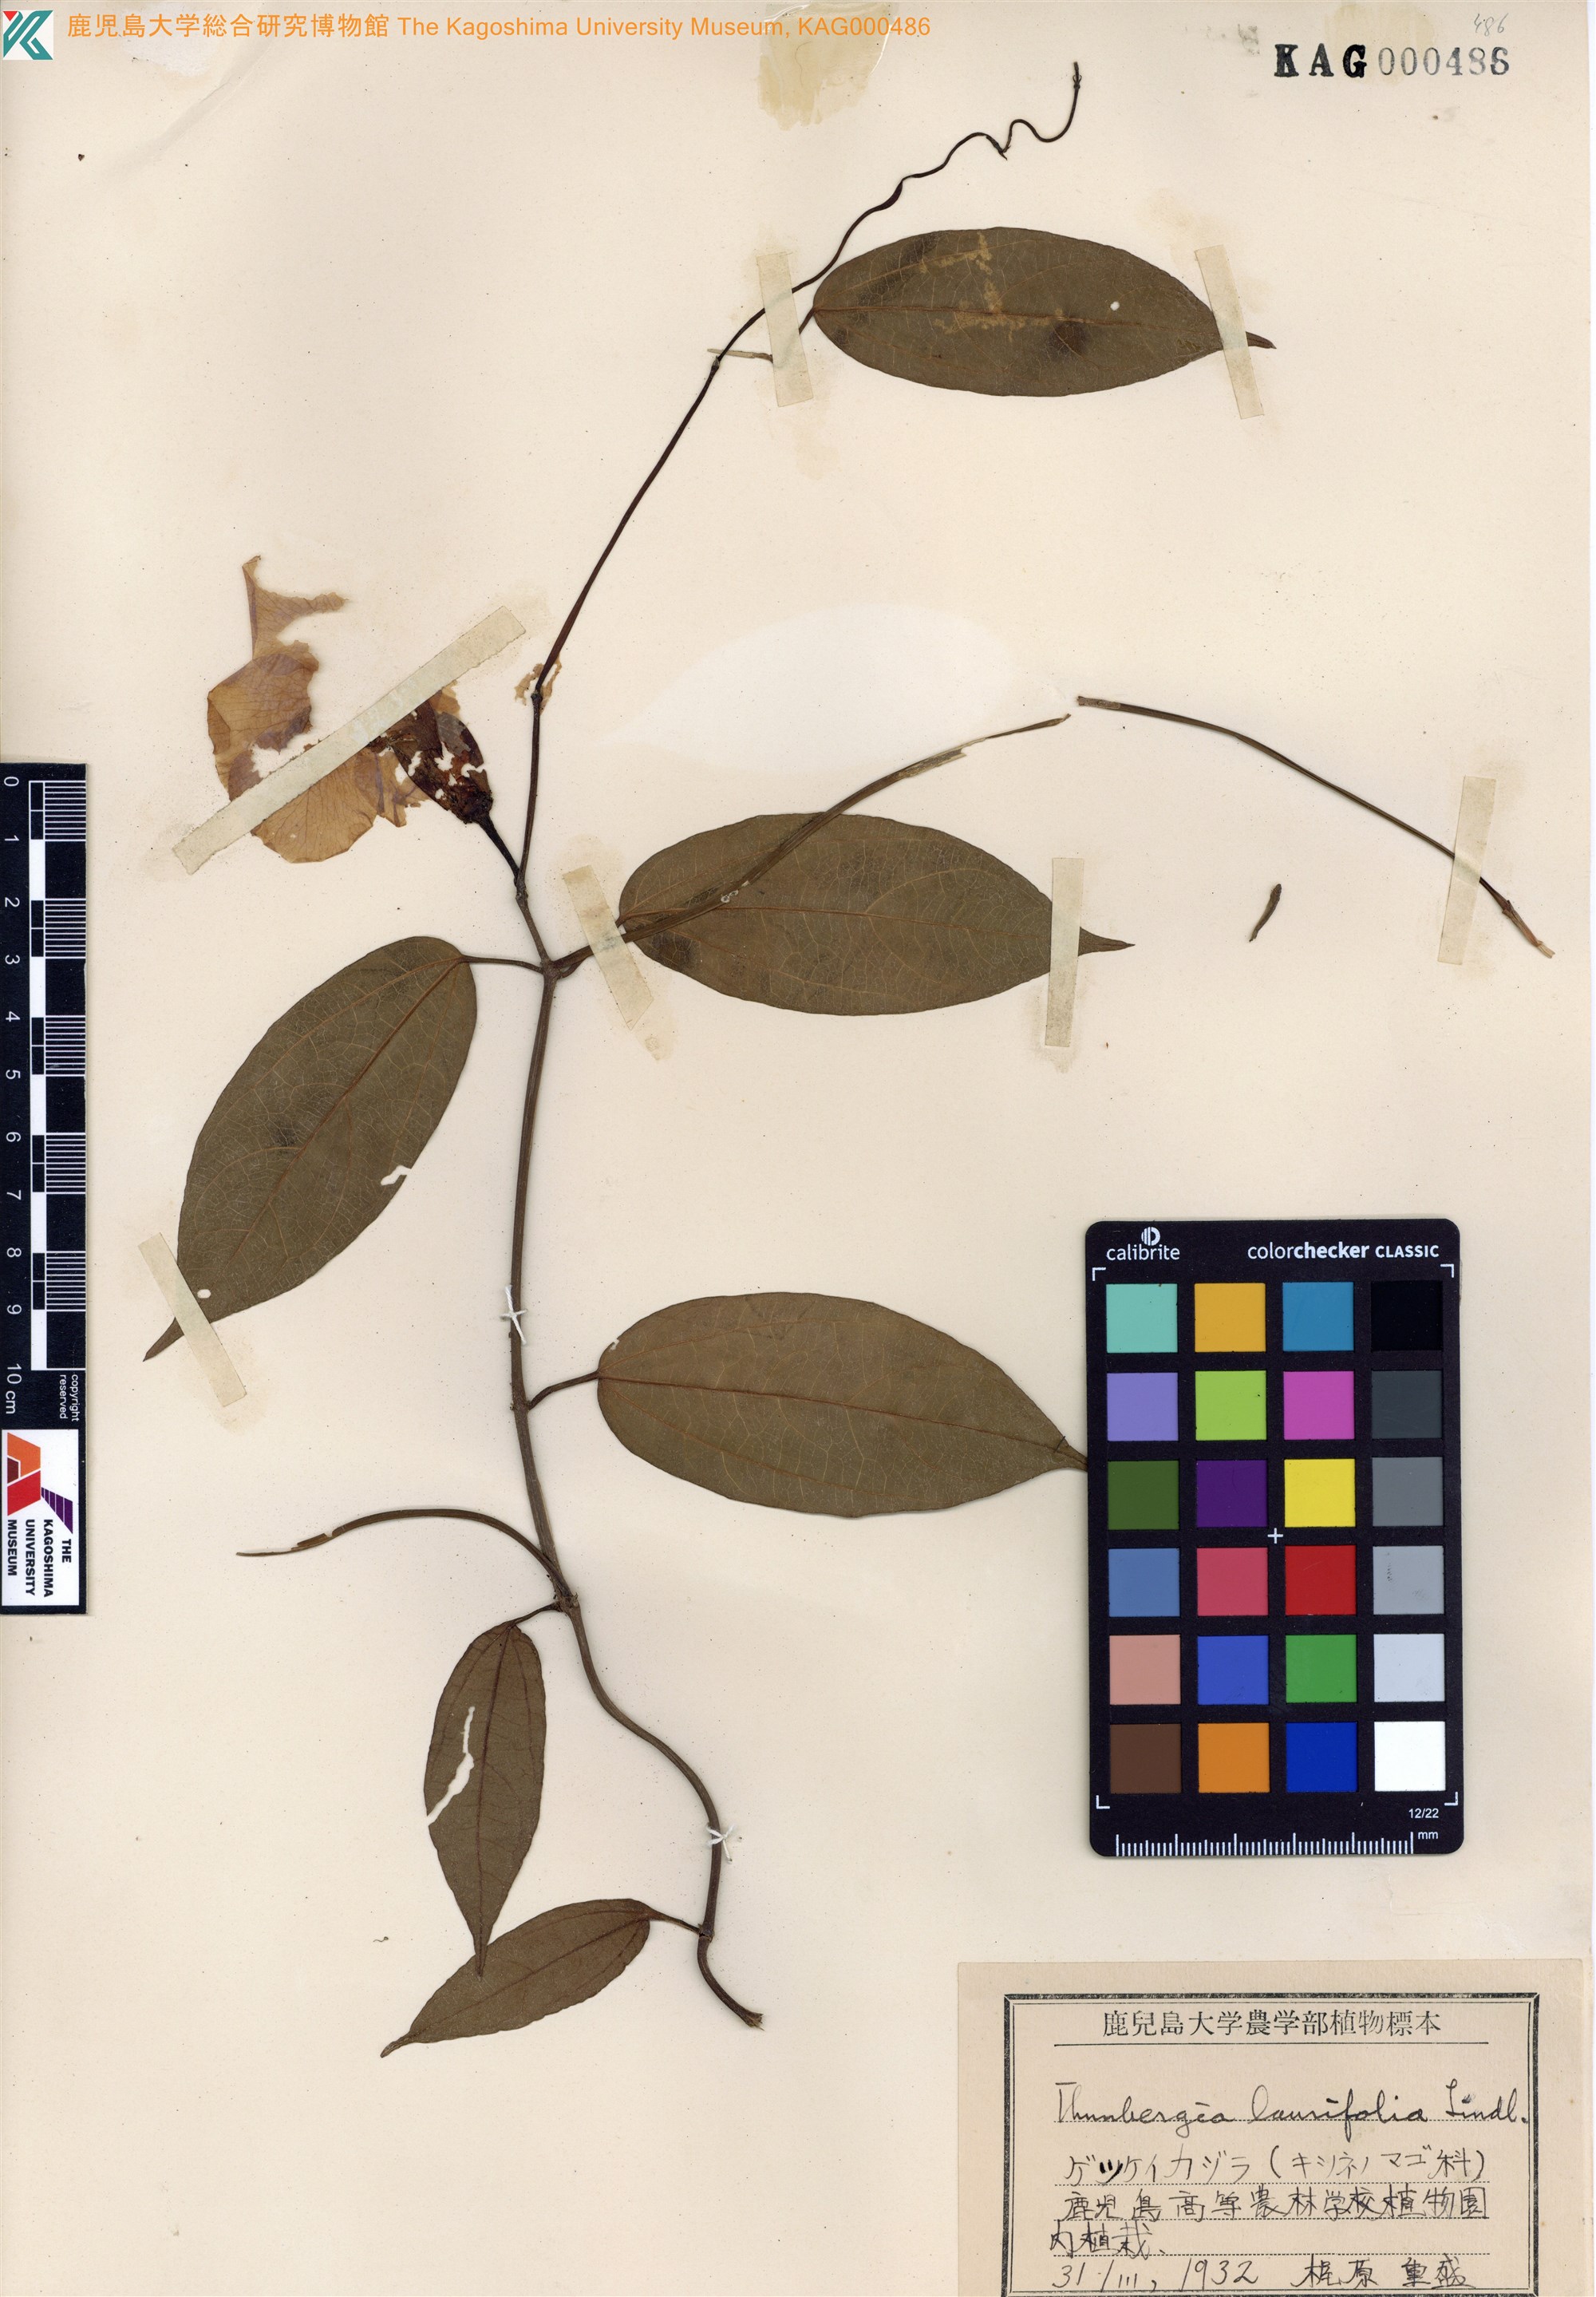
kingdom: Plantae
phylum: Tracheophyta
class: Magnoliopsida
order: Lamiales
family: Acanthaceae
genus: Thunbergia
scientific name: Thunbergia laurifolia
